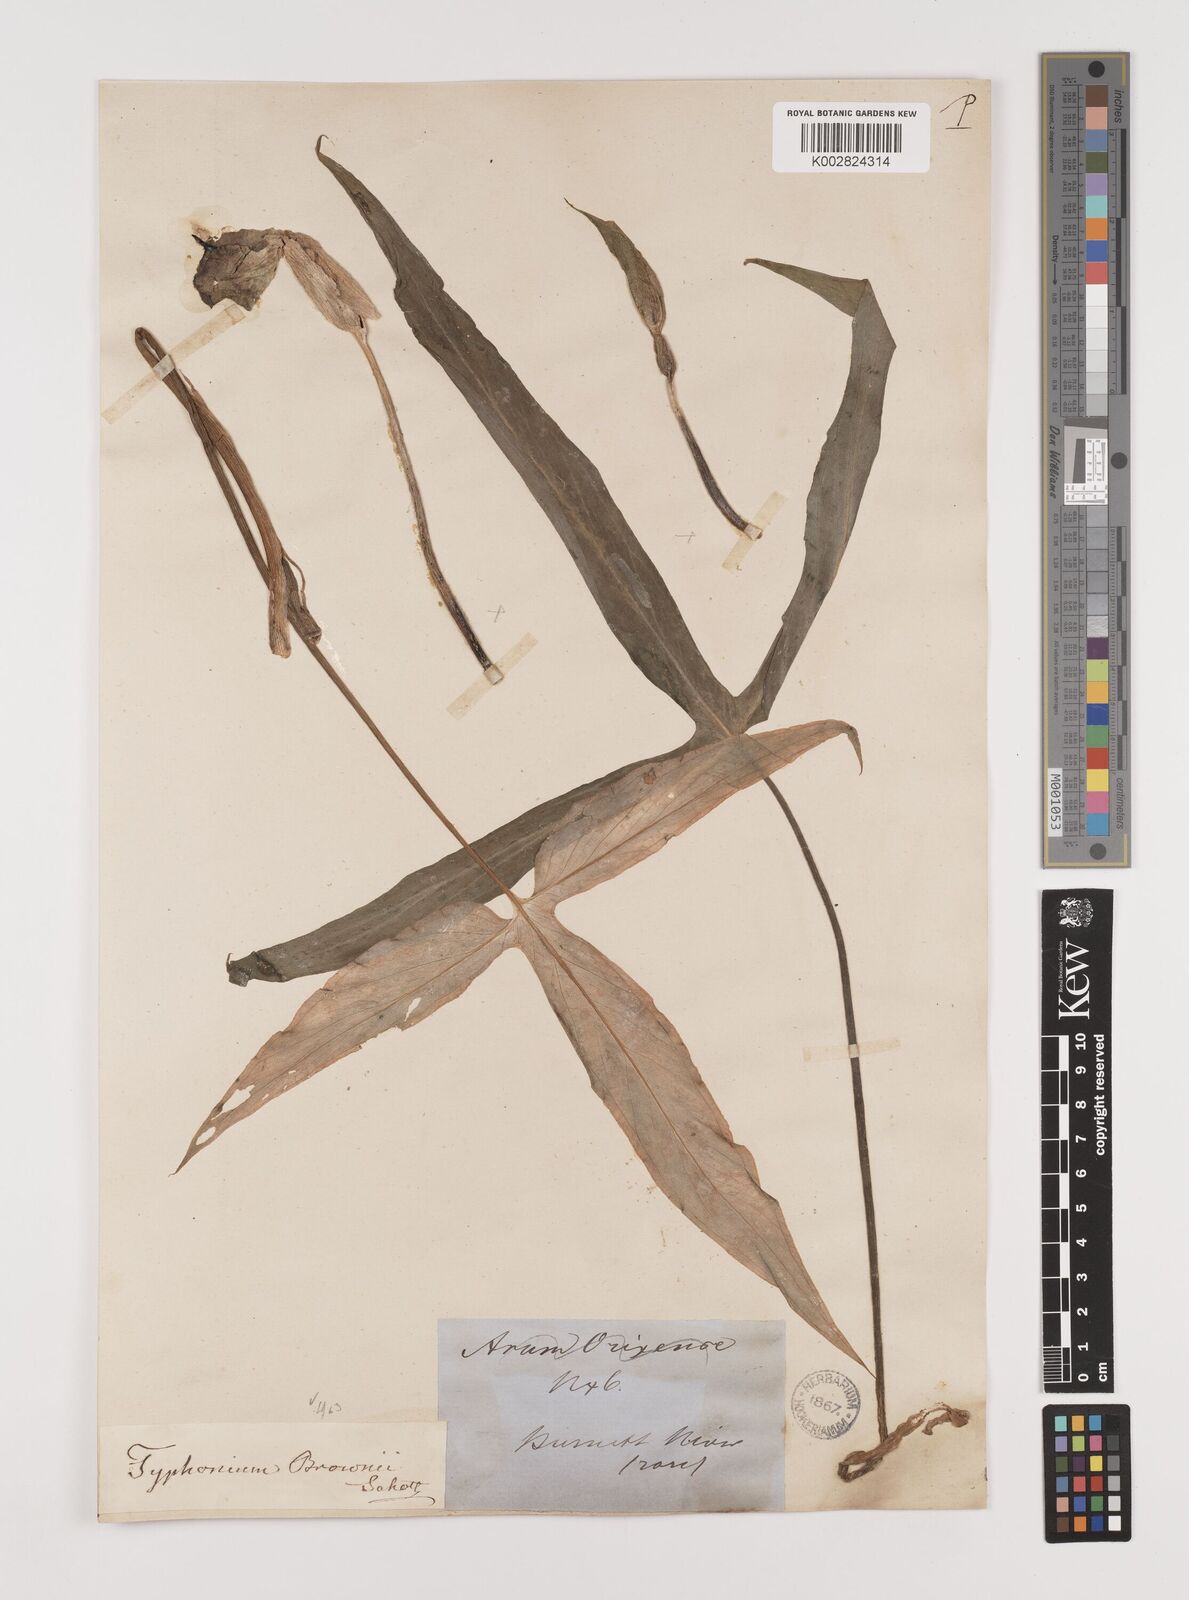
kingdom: Plantae
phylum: Tracheophyta
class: Liliopsida
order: Alismatales
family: Araceae
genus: Typhonium
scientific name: Typhonium brownii
